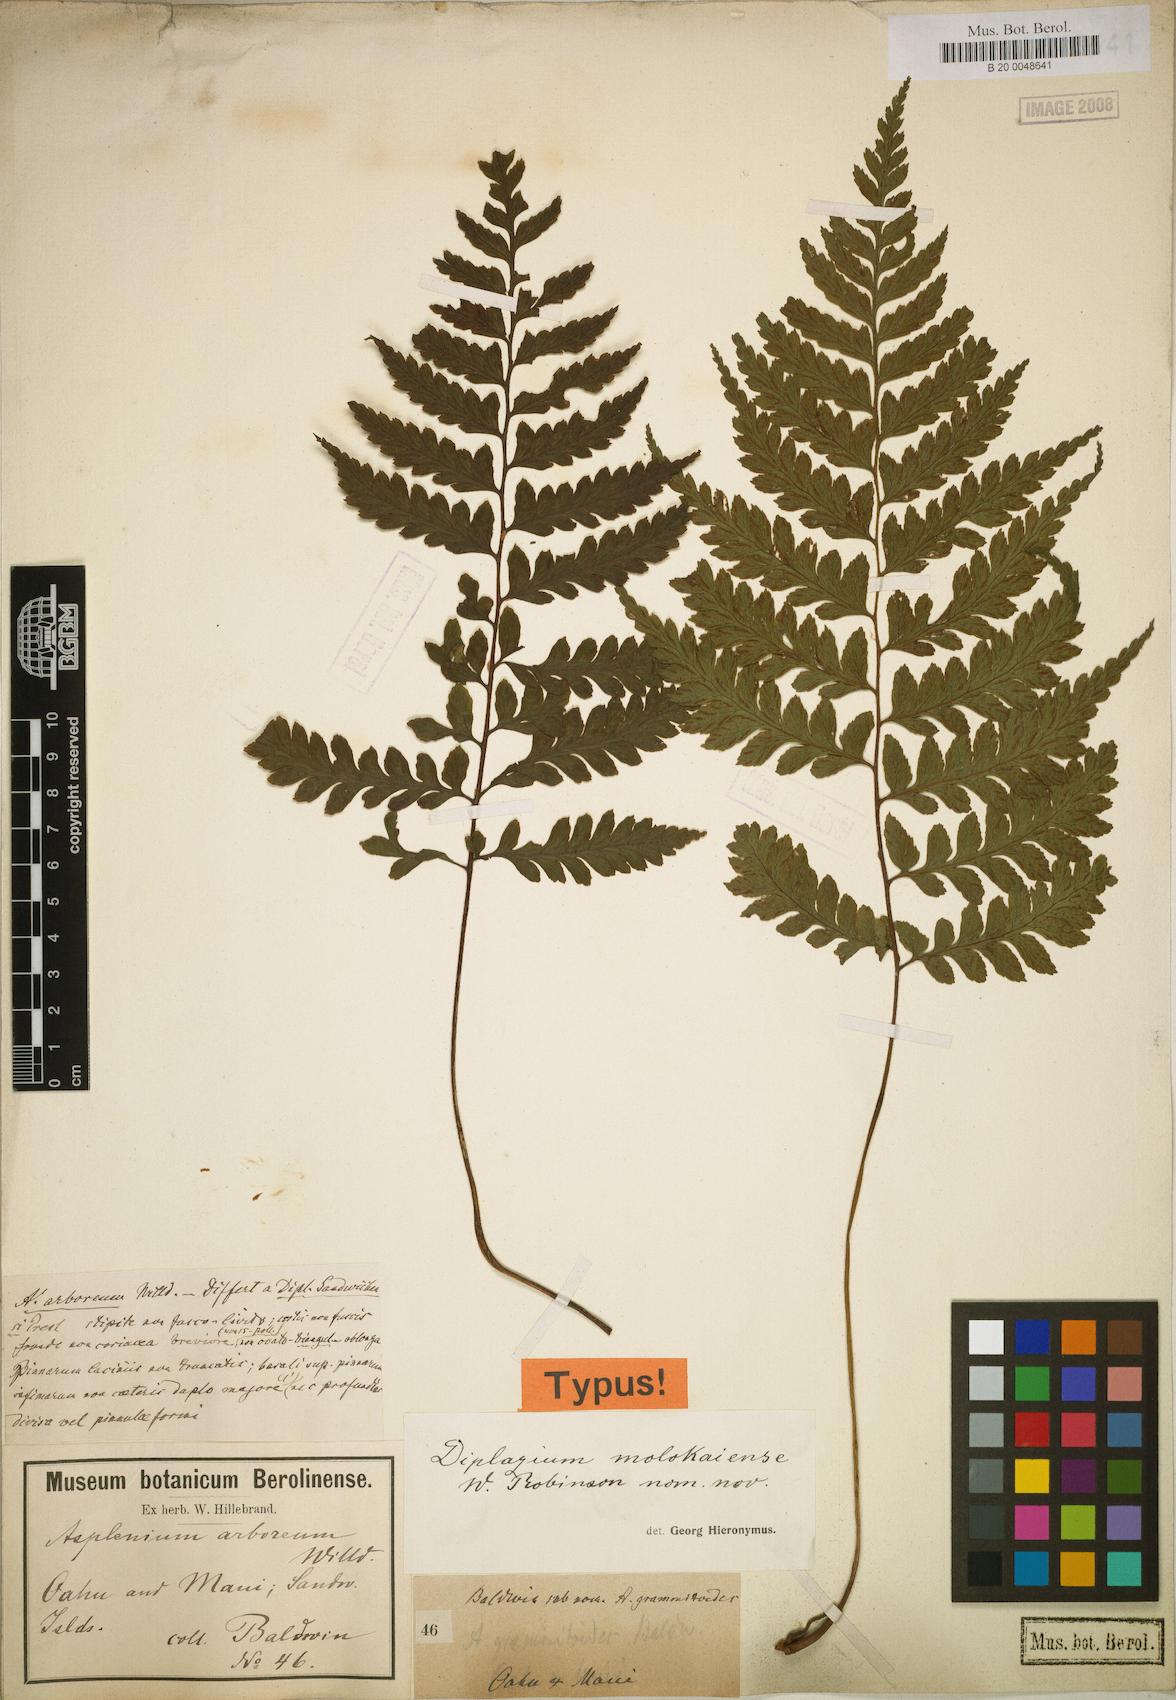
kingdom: Plantae
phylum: Tracheophyta
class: Polypodiopsida
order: Polypodiales
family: Athyriaceae
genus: Diplazium
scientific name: Diplazium molokaiense
